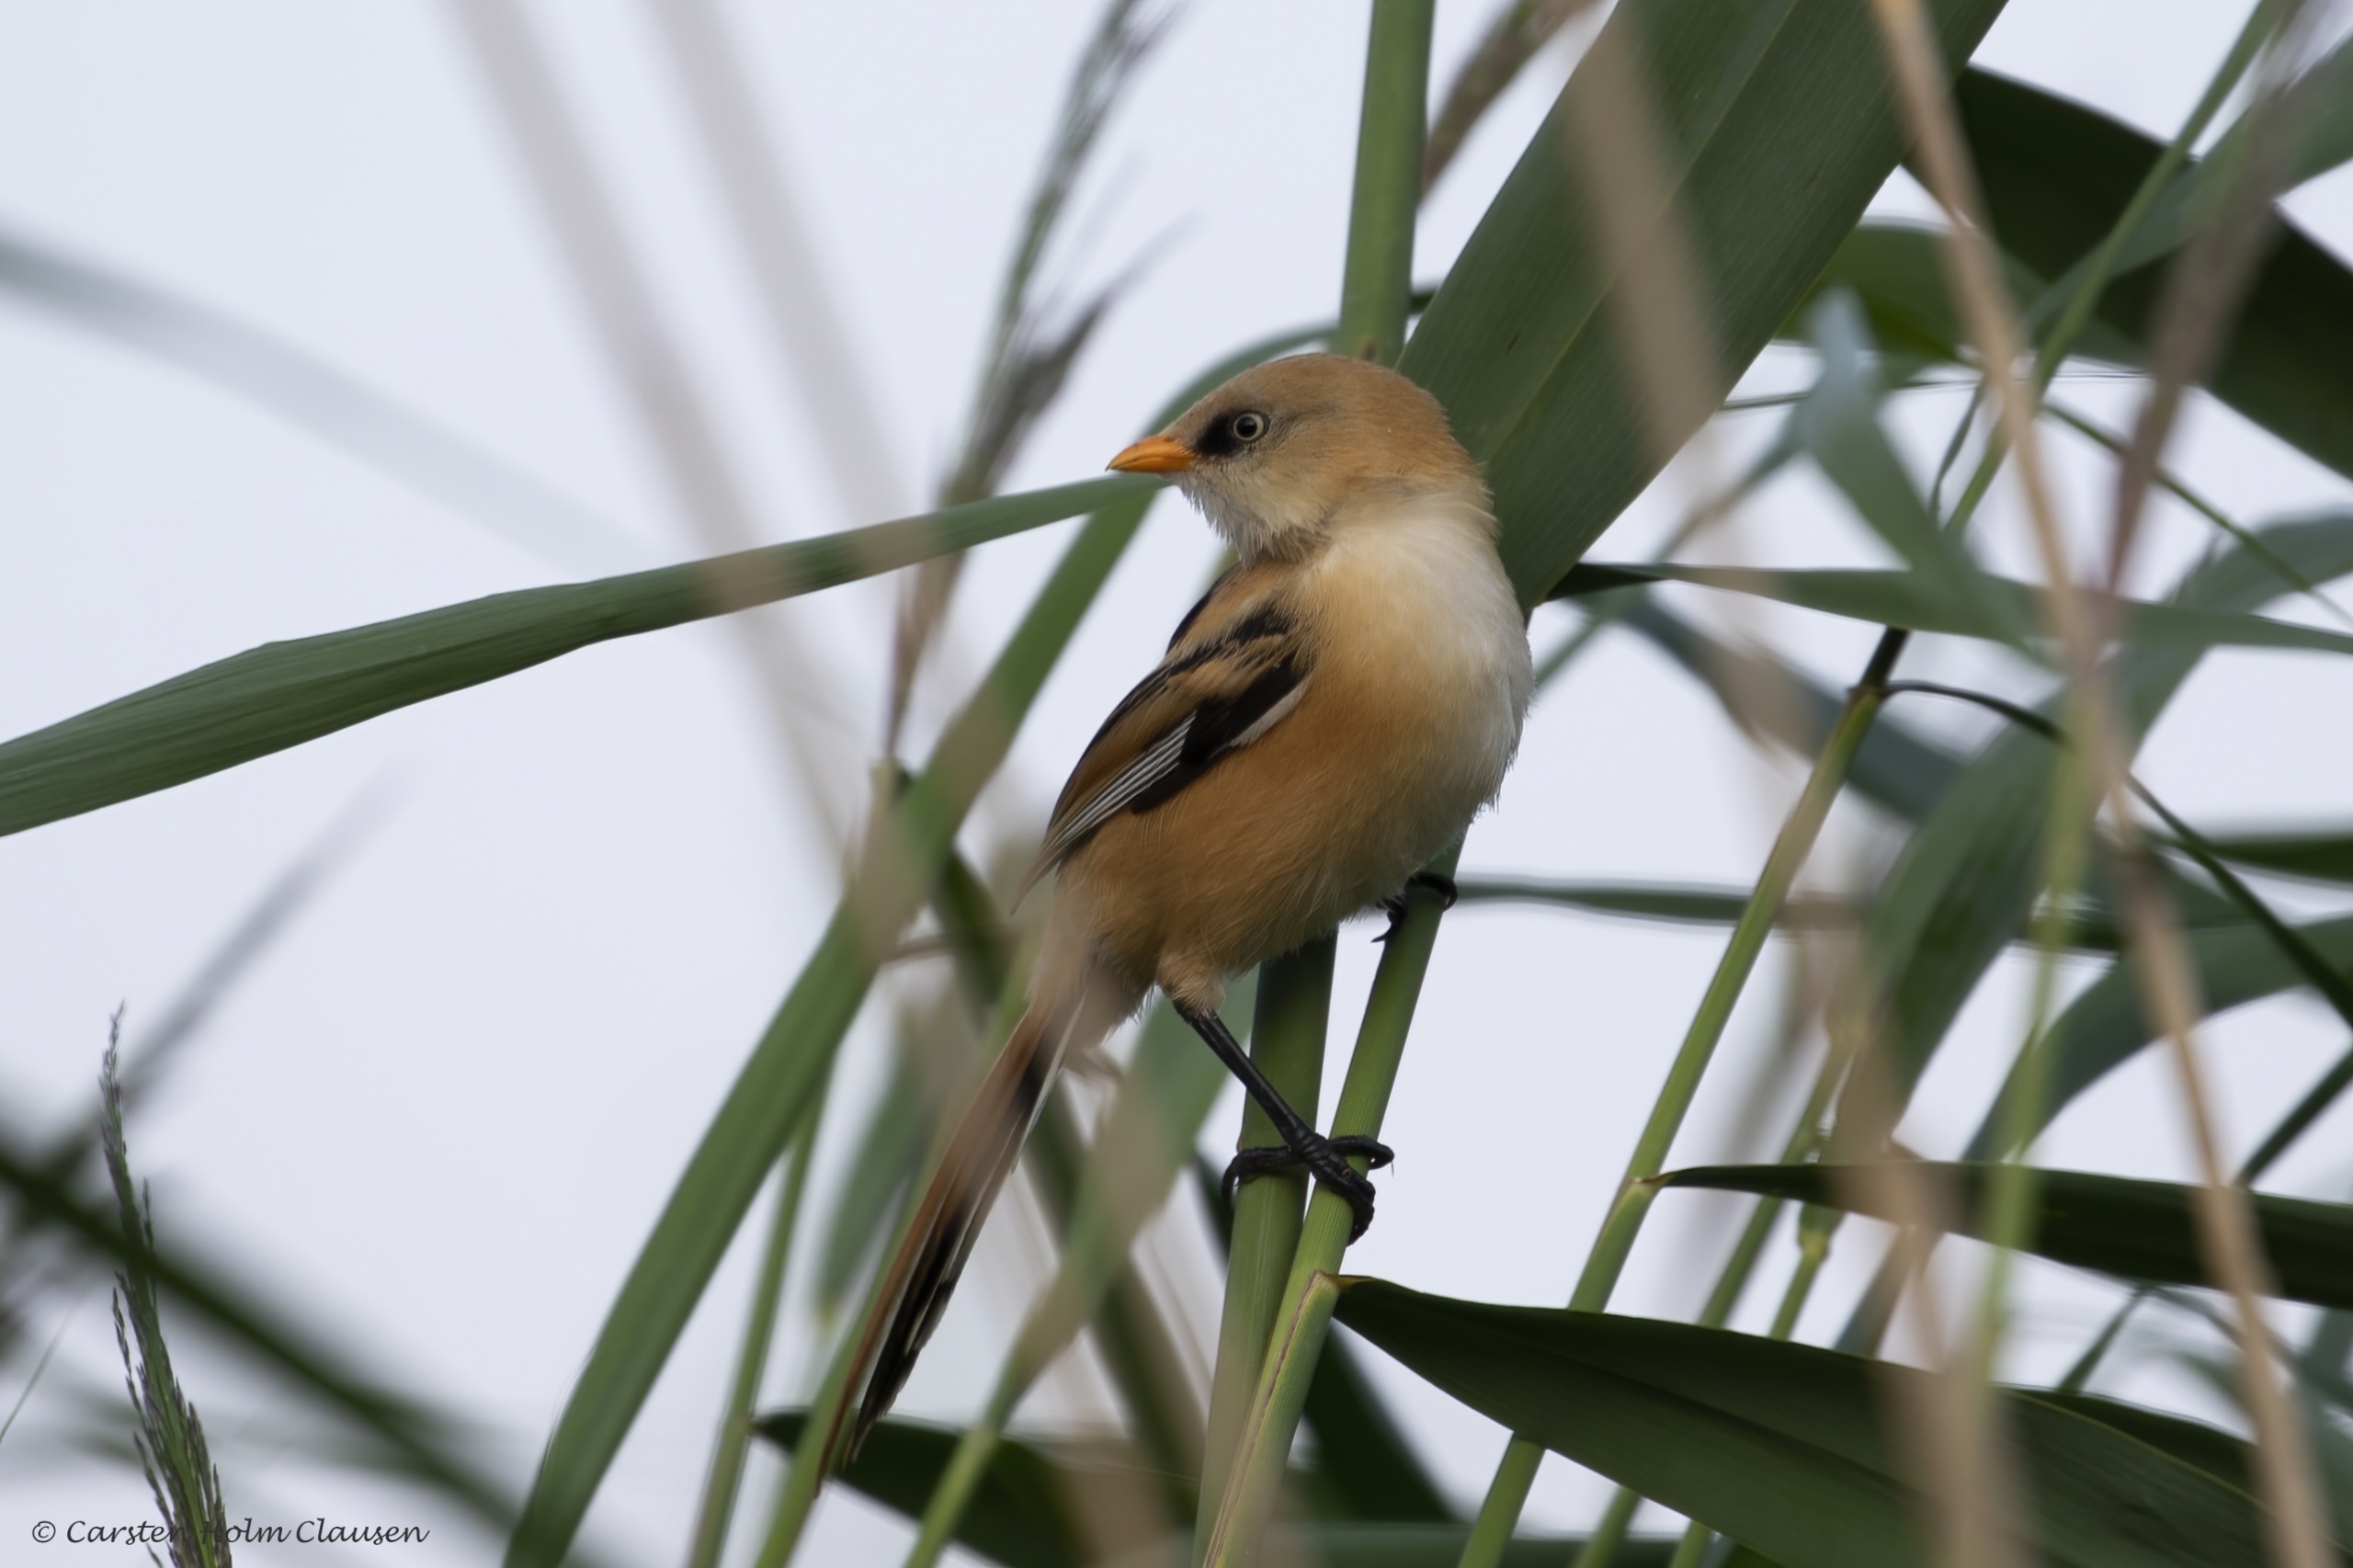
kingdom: Animalia
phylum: Chordata
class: Aves
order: Passeriformes
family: Panuridae
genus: Panurus
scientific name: Panurus biarmicus
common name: Skægmejse
